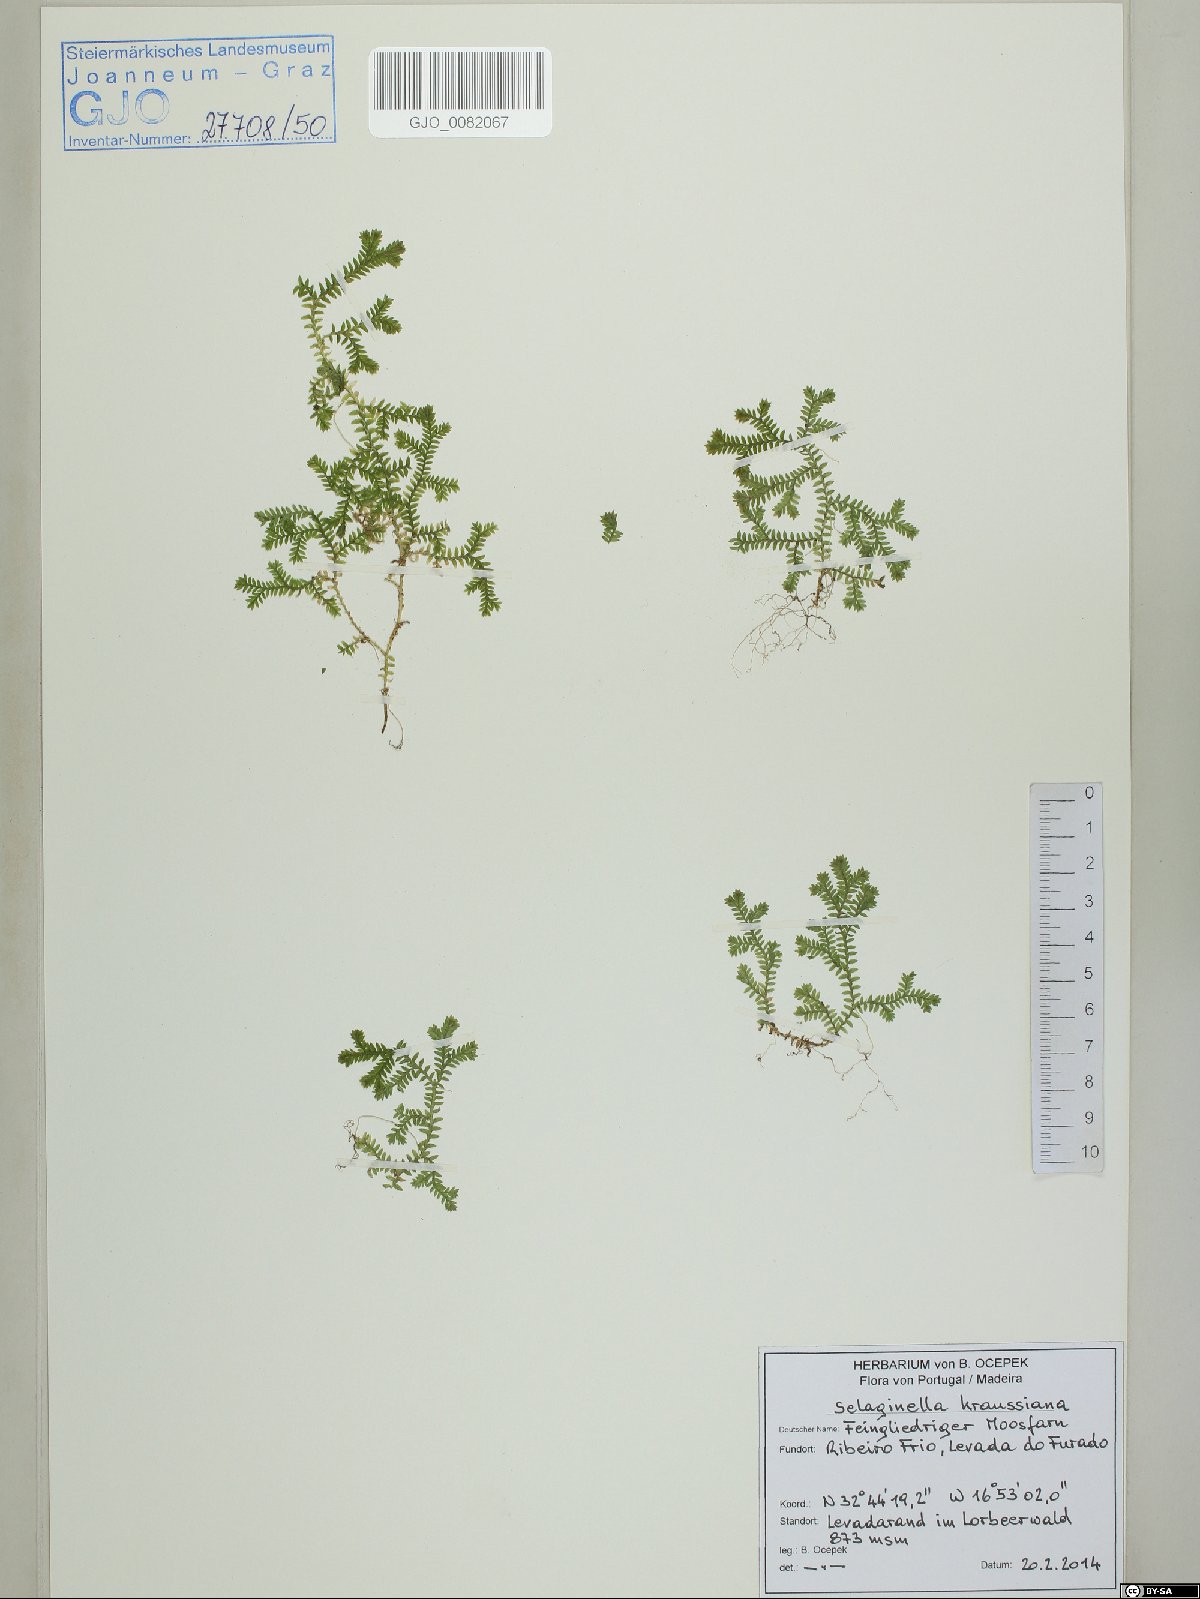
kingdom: Plantae
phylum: Tracheophyta
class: Lycopodiopsida
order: Selaginellales
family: Selaginellaceae
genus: Selaginella
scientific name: Selaginella kraussiana
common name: Krauss' spikemoss
